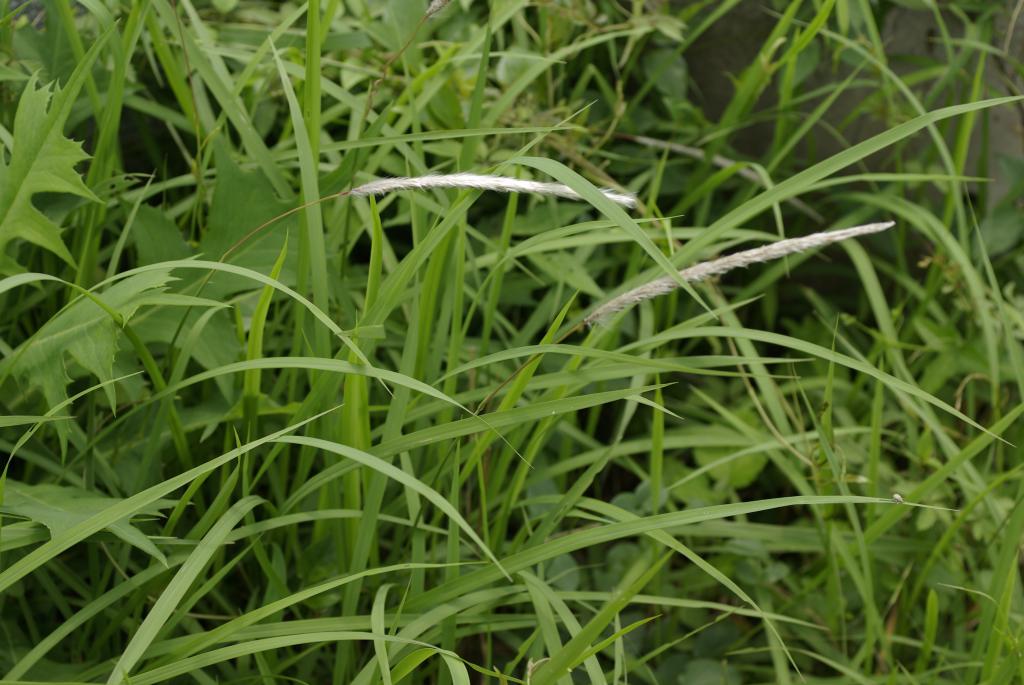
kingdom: Plantae
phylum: Tracheophyta
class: Liliopsida
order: Poales
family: Poaceae
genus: Imperata
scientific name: Imperata cylindrica
